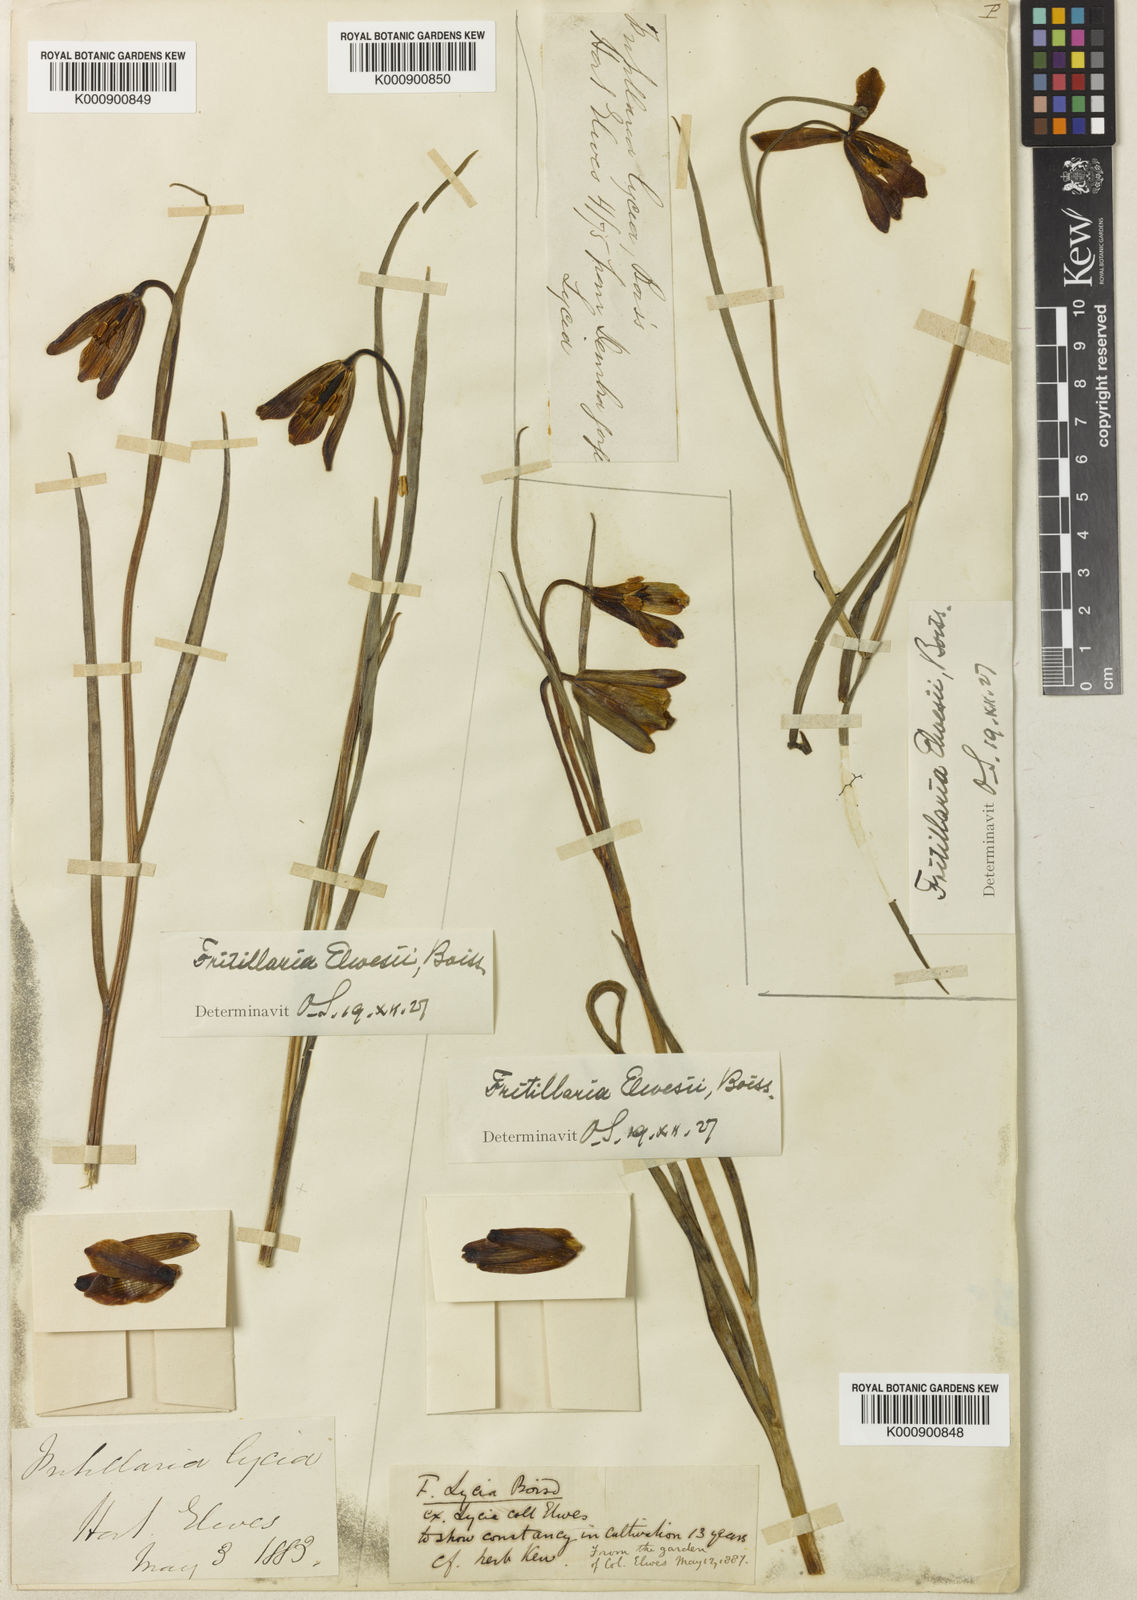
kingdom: Plantae
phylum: Tracheophyta
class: Liliopsida
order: Liliales
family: Liliaceae
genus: Fritillaria
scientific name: Fritillaria elwesii
